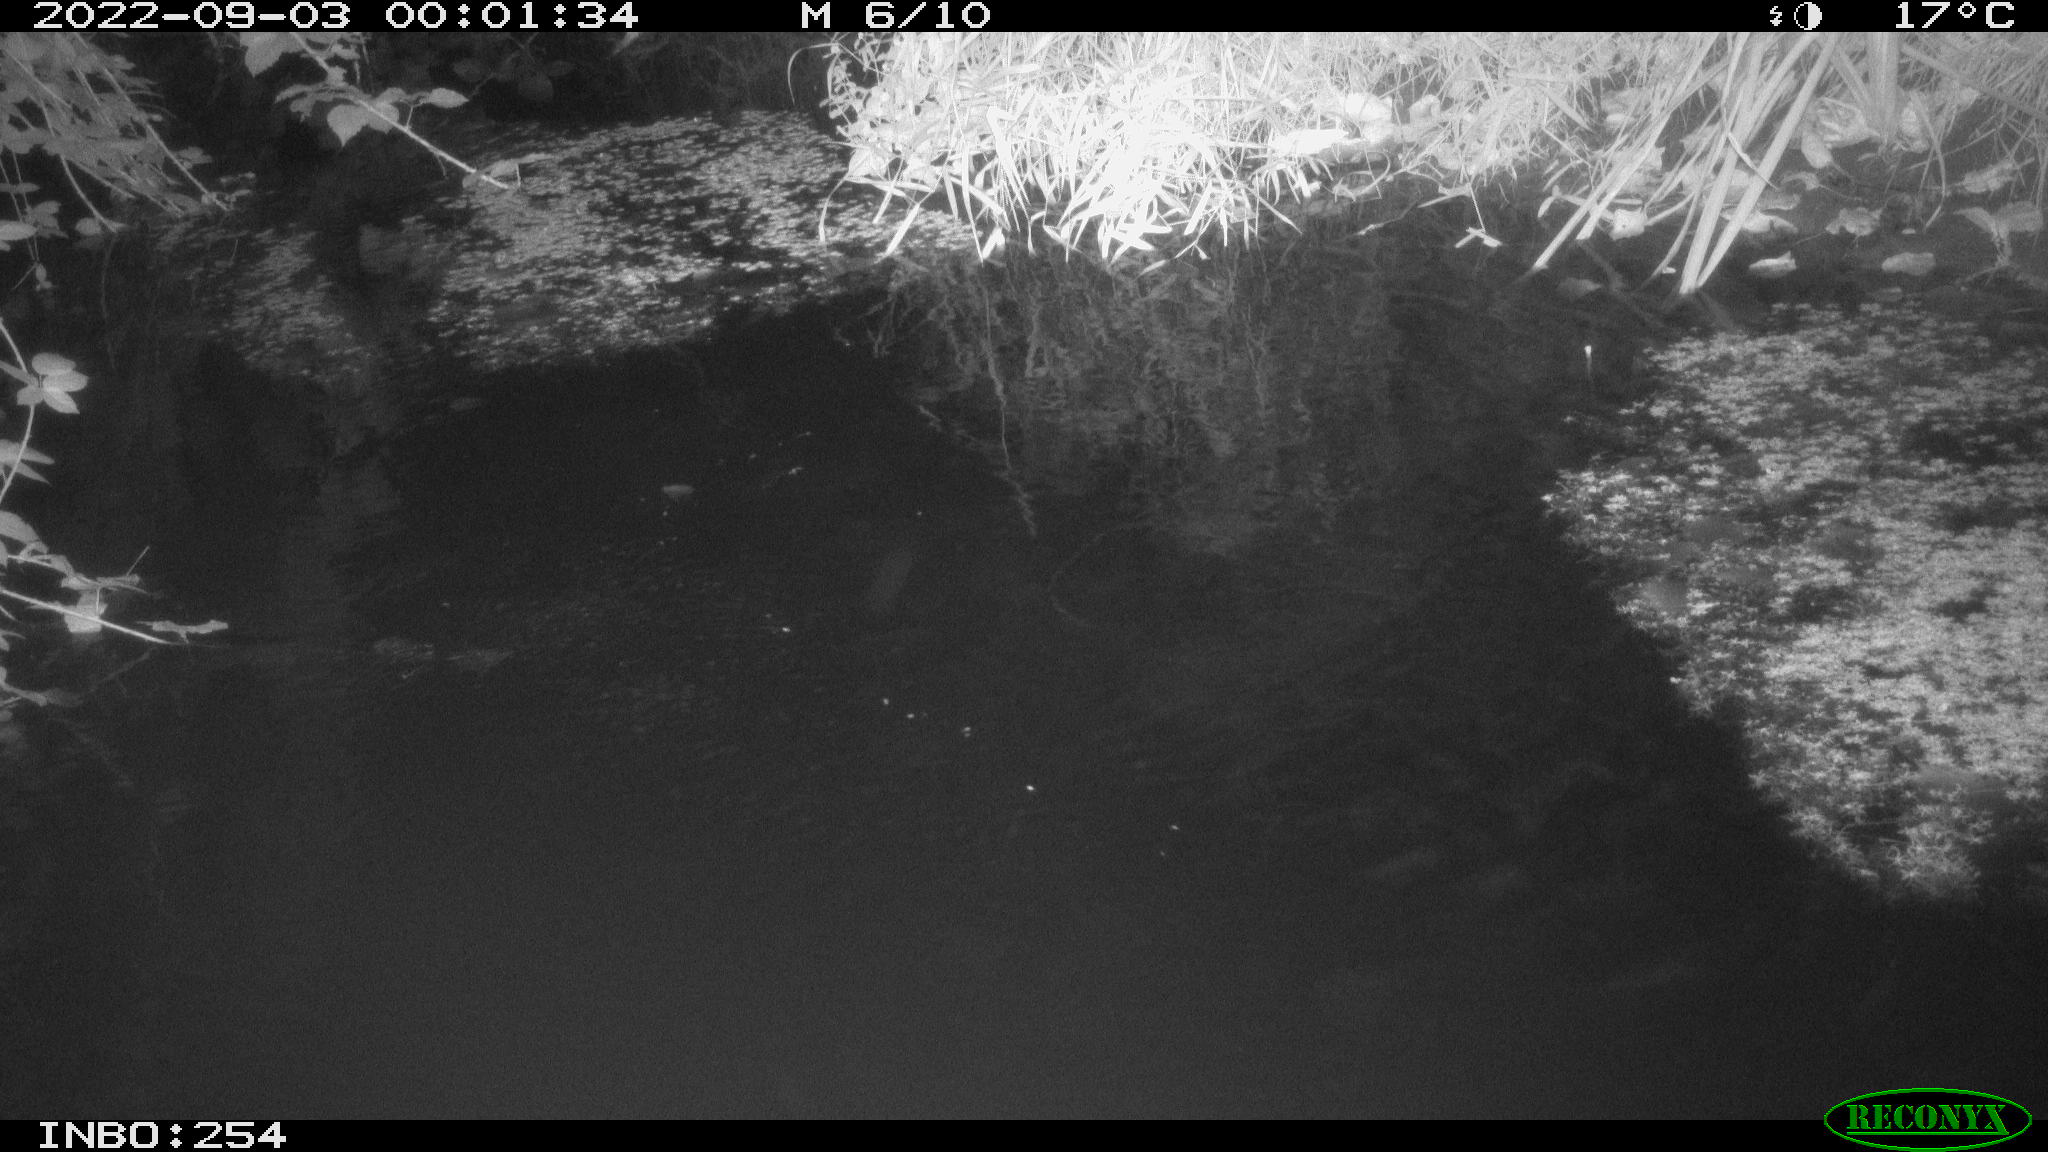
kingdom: Animalia
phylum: Chordata
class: Aves
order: Anseriformes
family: Anatidae
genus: Anas
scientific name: Anas platyrhynchos
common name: Mallard
